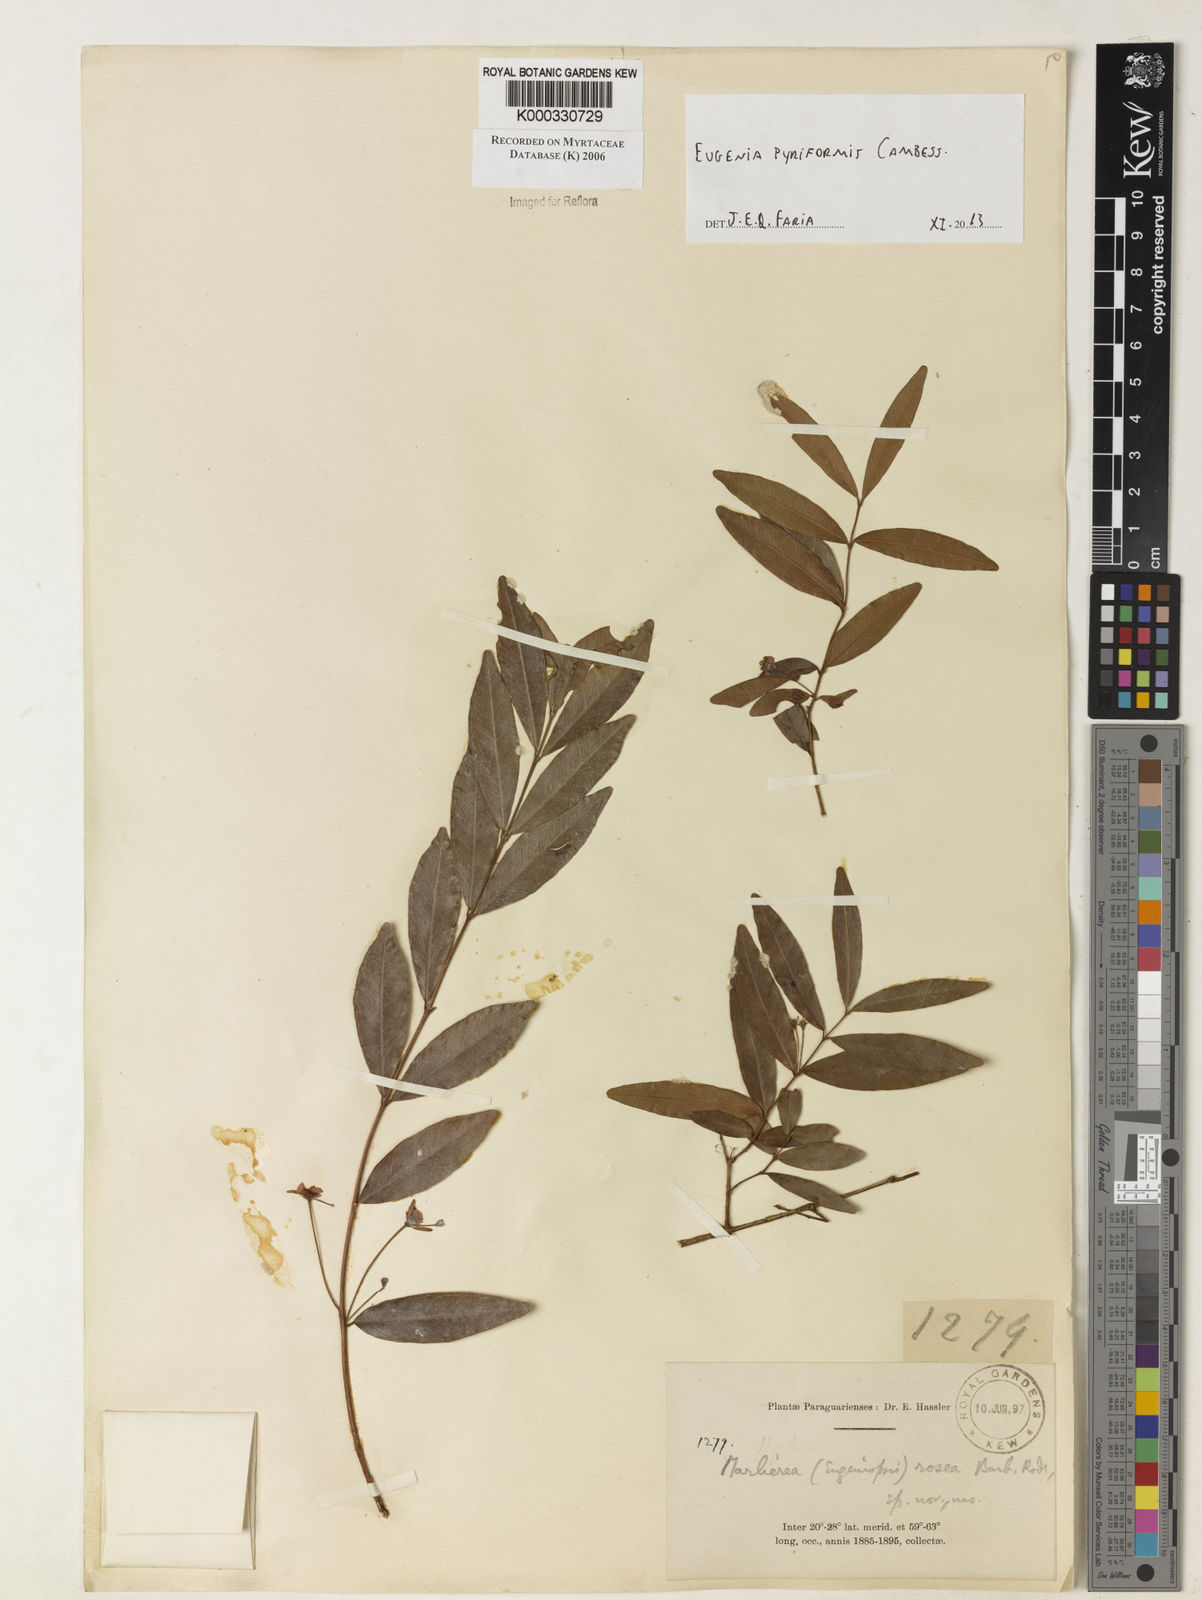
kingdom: Plantae
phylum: Tracheophyta
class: Magnoliopsida
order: Myrtales
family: Myrtaceae
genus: Eugenia
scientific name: Eugenia pyriformis
